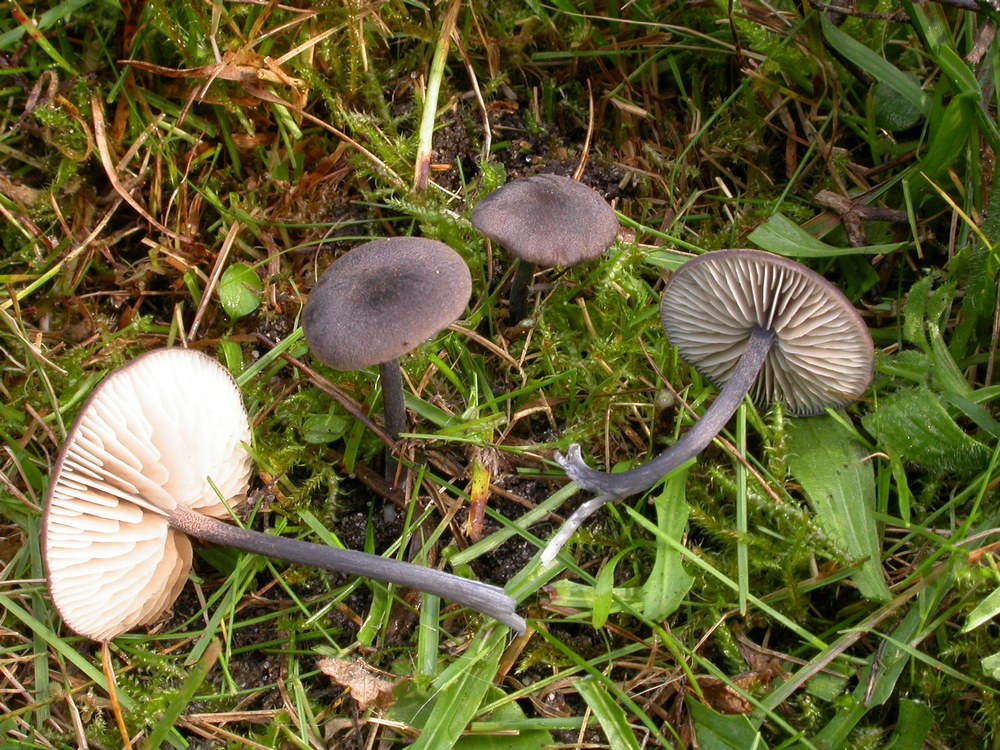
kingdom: Fungi
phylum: Basidiomycota
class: Agaricomycetes
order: Agaricales
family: Entolomataceae
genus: Entoloma
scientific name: Entoloma atrocoeruleum
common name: sortblå rødblad
